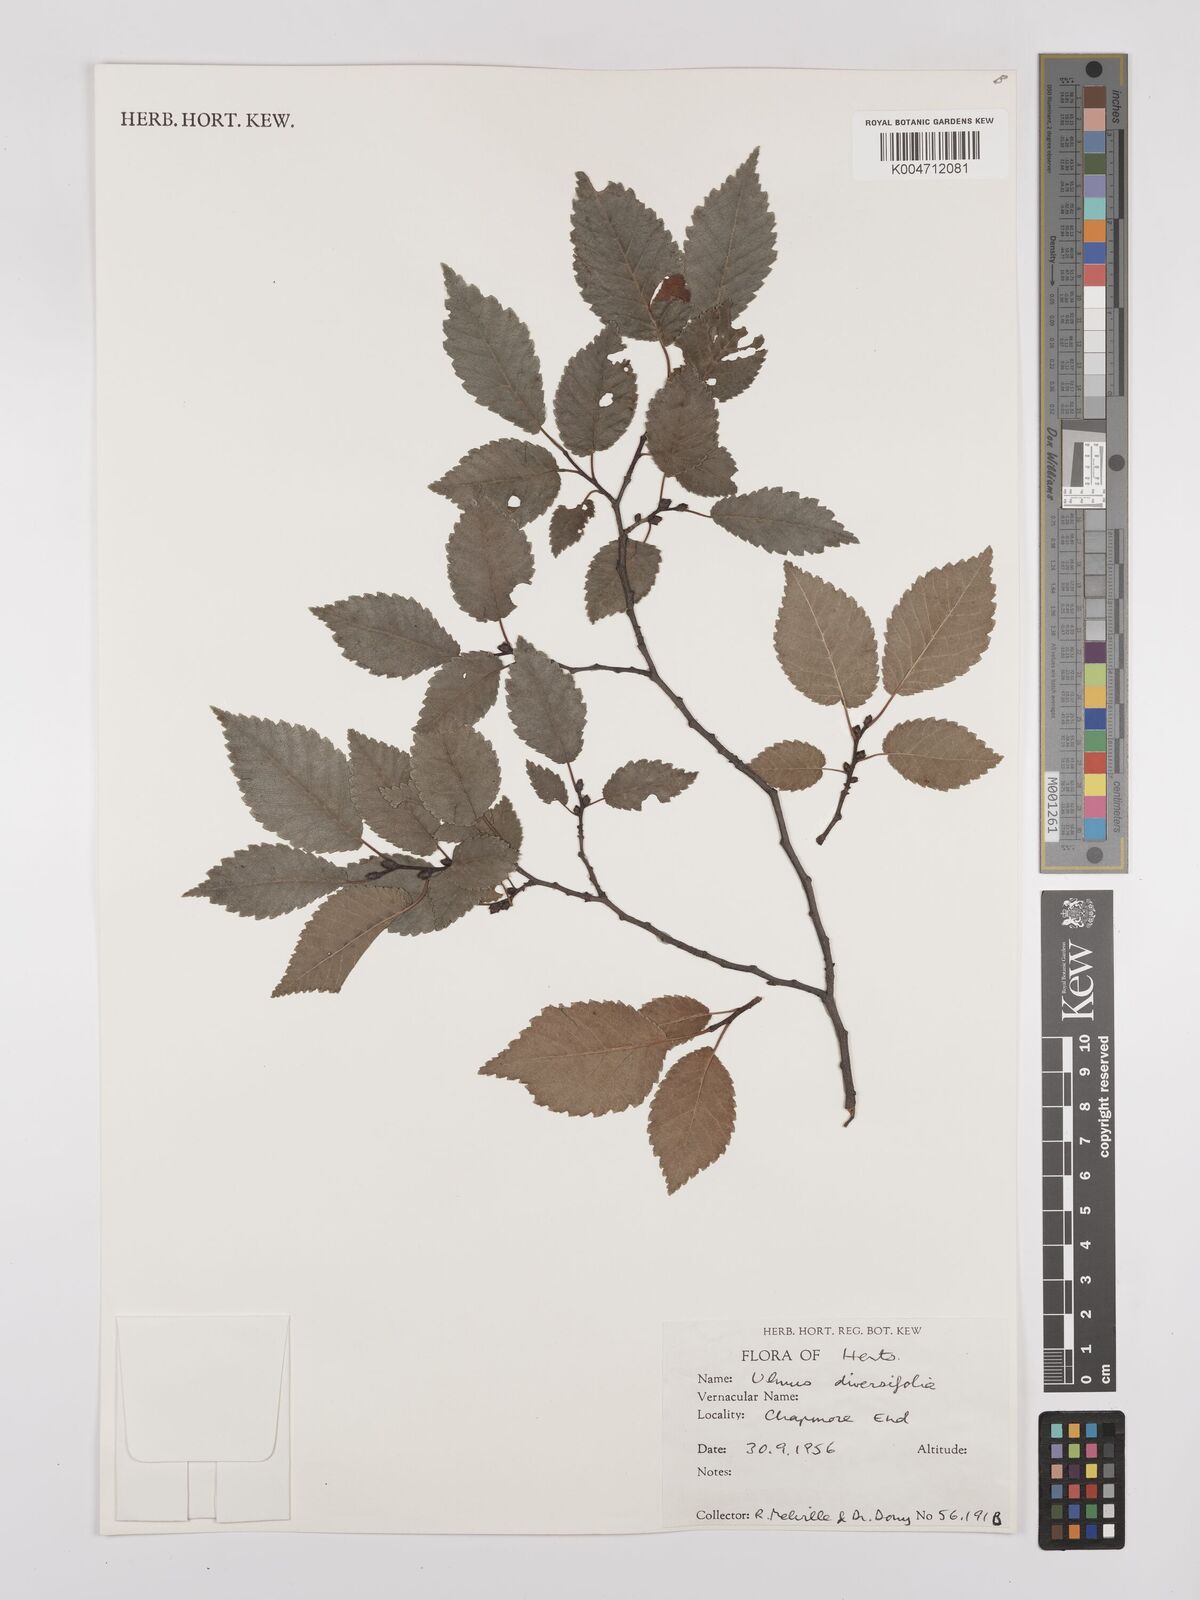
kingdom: Plantae
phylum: Tracheophyta
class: Magnoliopsida
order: Rosales
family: Ulmaceae
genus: Ulmus
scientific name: Ulmus minor
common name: Small-leaved elm
